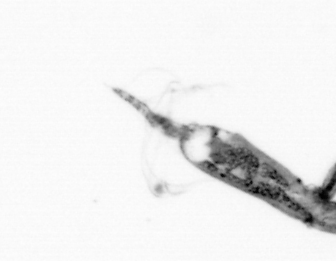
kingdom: Animalia
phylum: Arthropoda
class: Copepoda
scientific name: Copepoda
